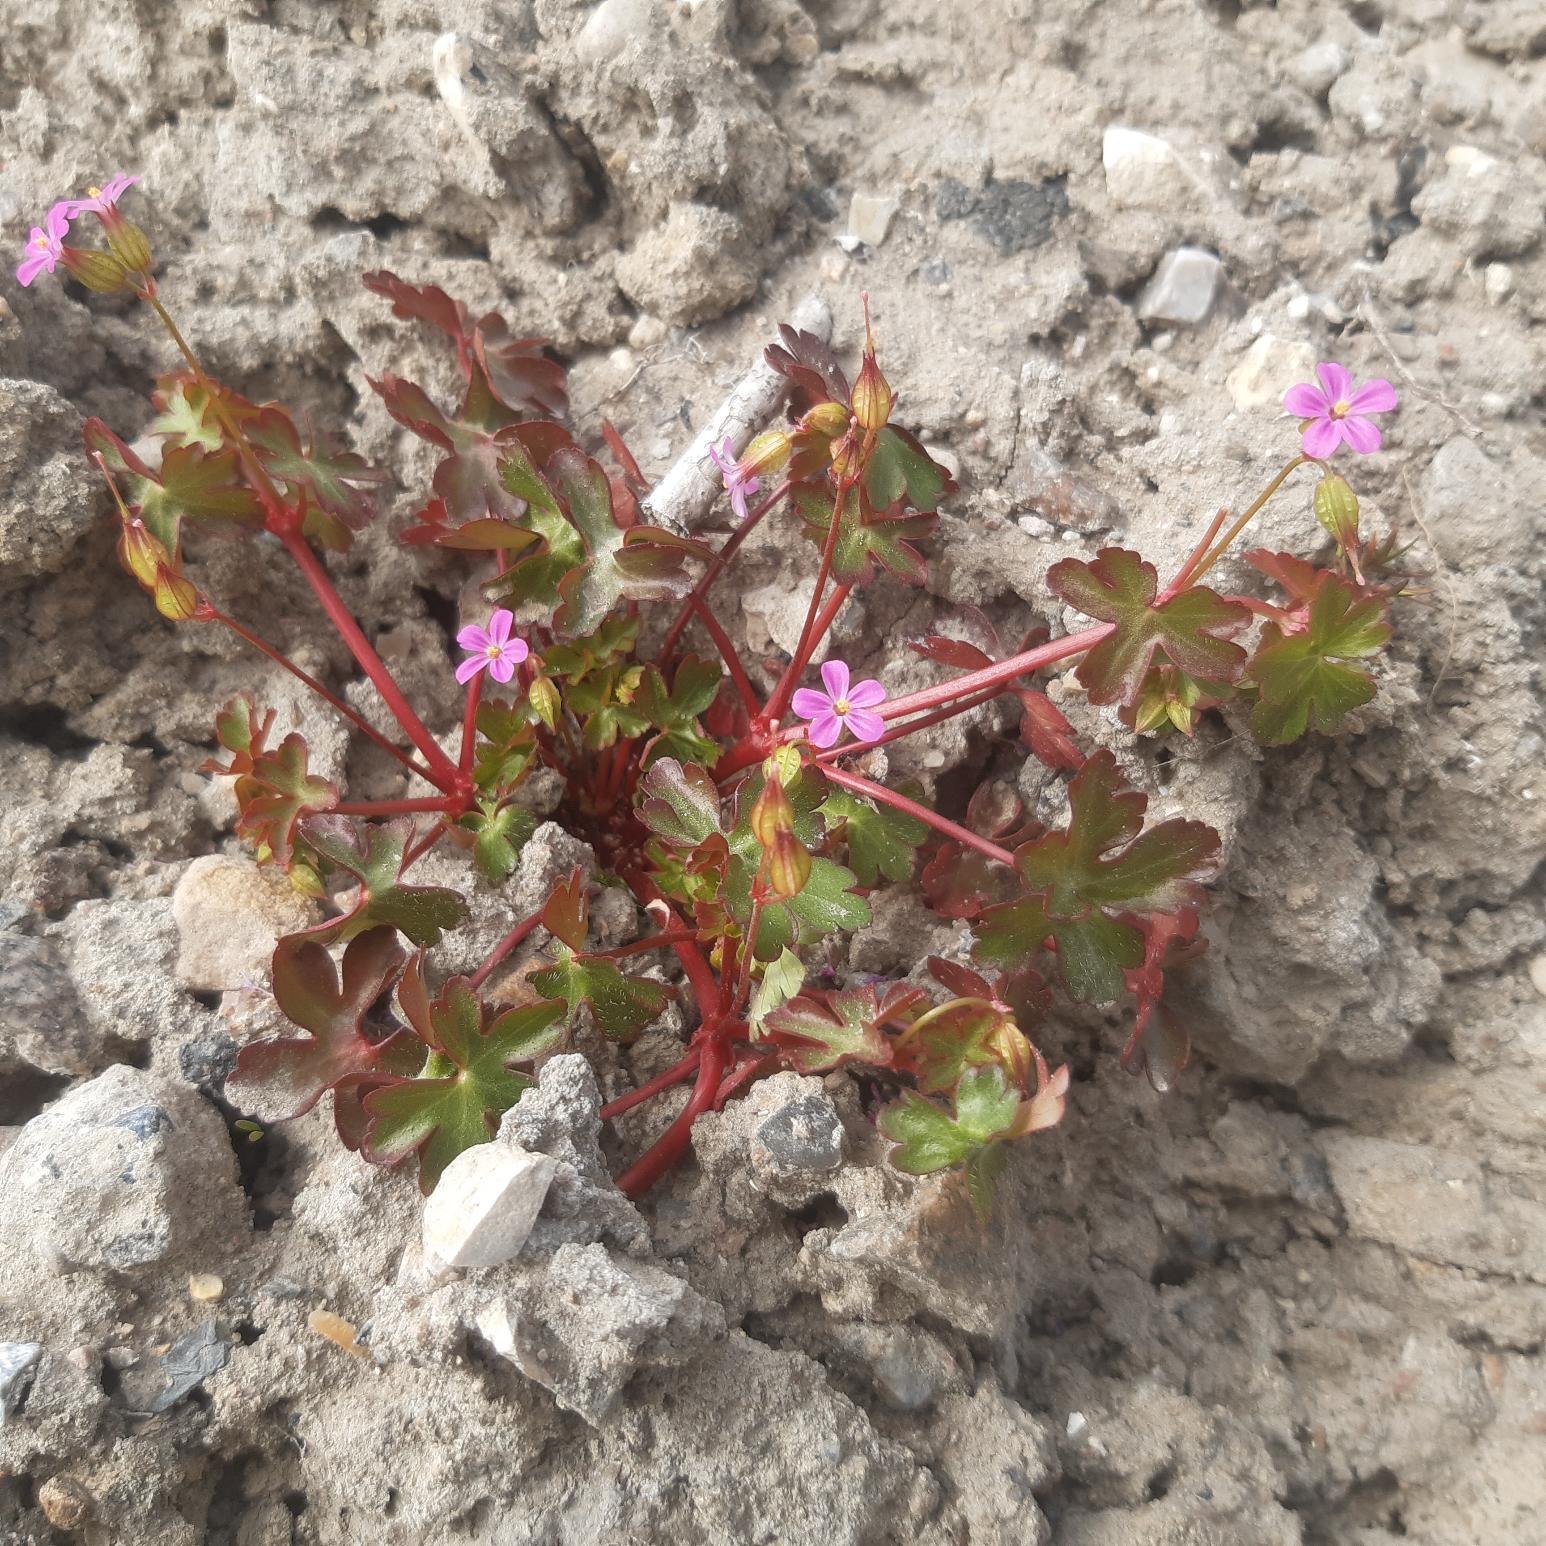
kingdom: Plantae
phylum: Tracheophyta
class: Magnoliopsida
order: Geraniales
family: Geraniaceae
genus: Geranium
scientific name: Geranium lucidum
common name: Skinnende storkenæb
